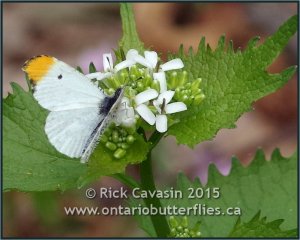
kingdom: Animalia
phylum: Arthropoda
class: Insecta
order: Lepidoptera
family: Pieridae
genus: Anthocharis
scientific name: Anthocharis midea
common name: Falcate Orangetip
